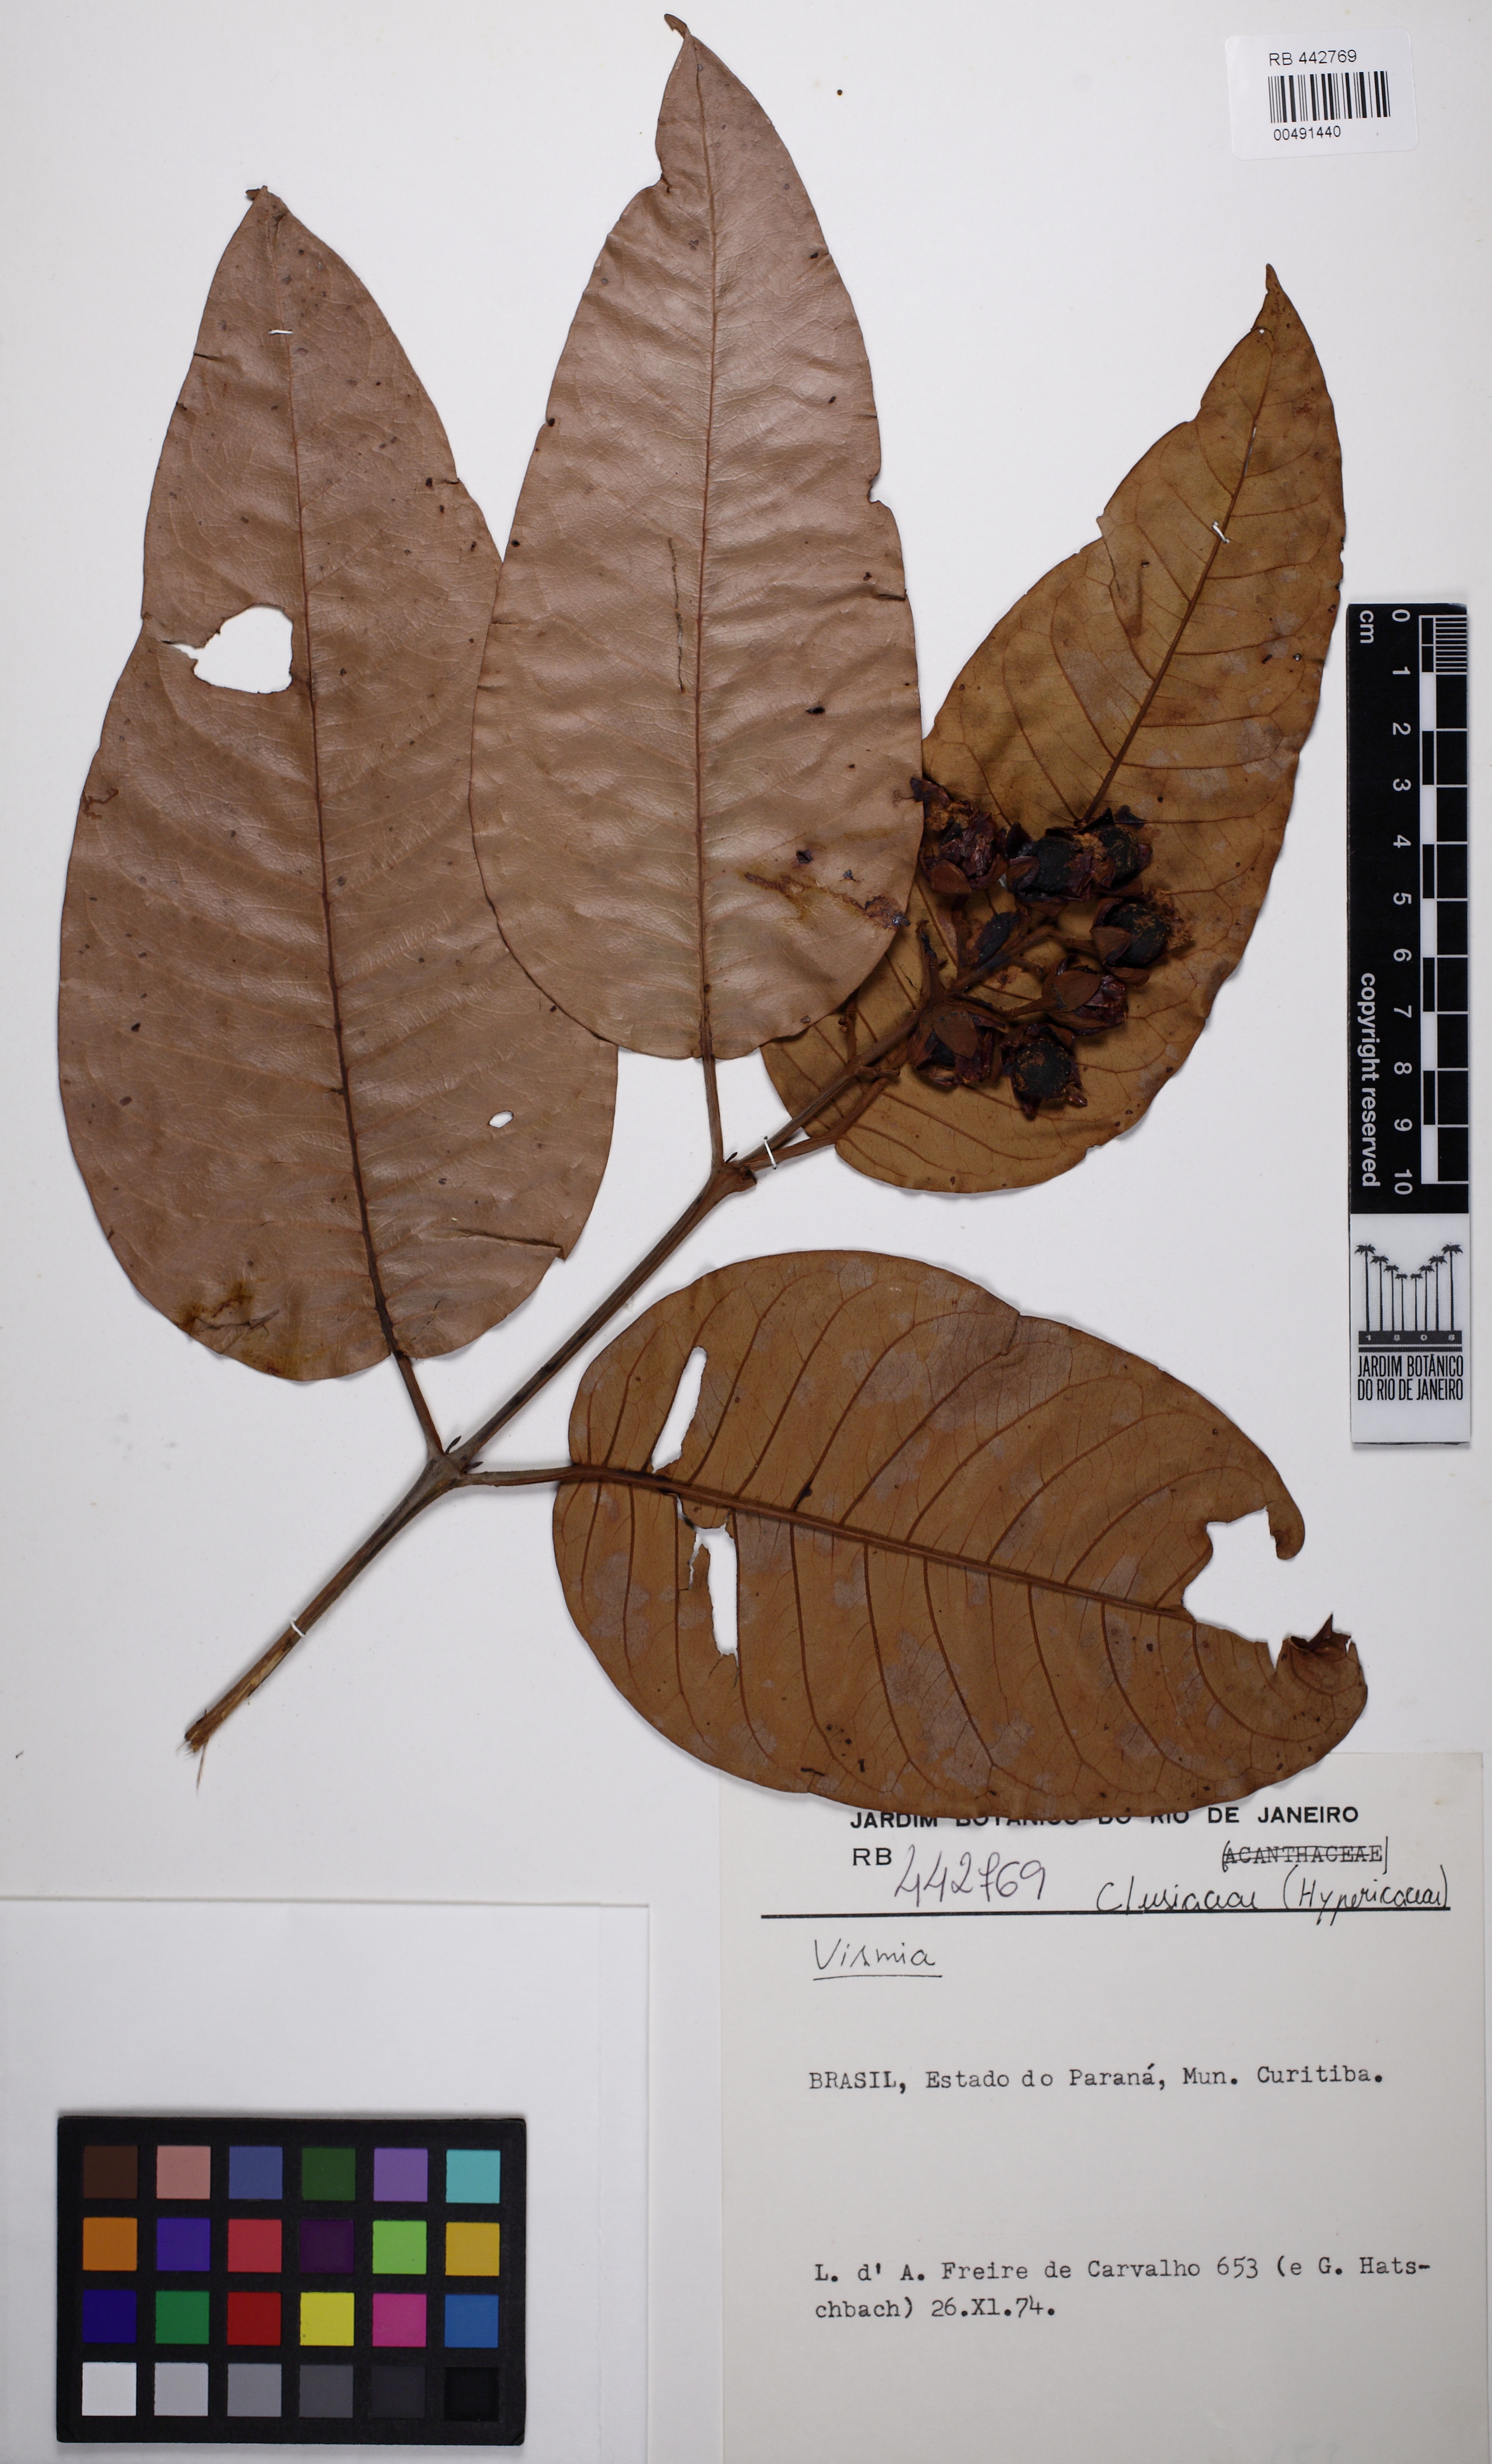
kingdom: Plantae
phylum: Tracheophyta
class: Magnoliopsida
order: Malpighiales
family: Hypericaceae
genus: Vismia
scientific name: Vismia latifolia
